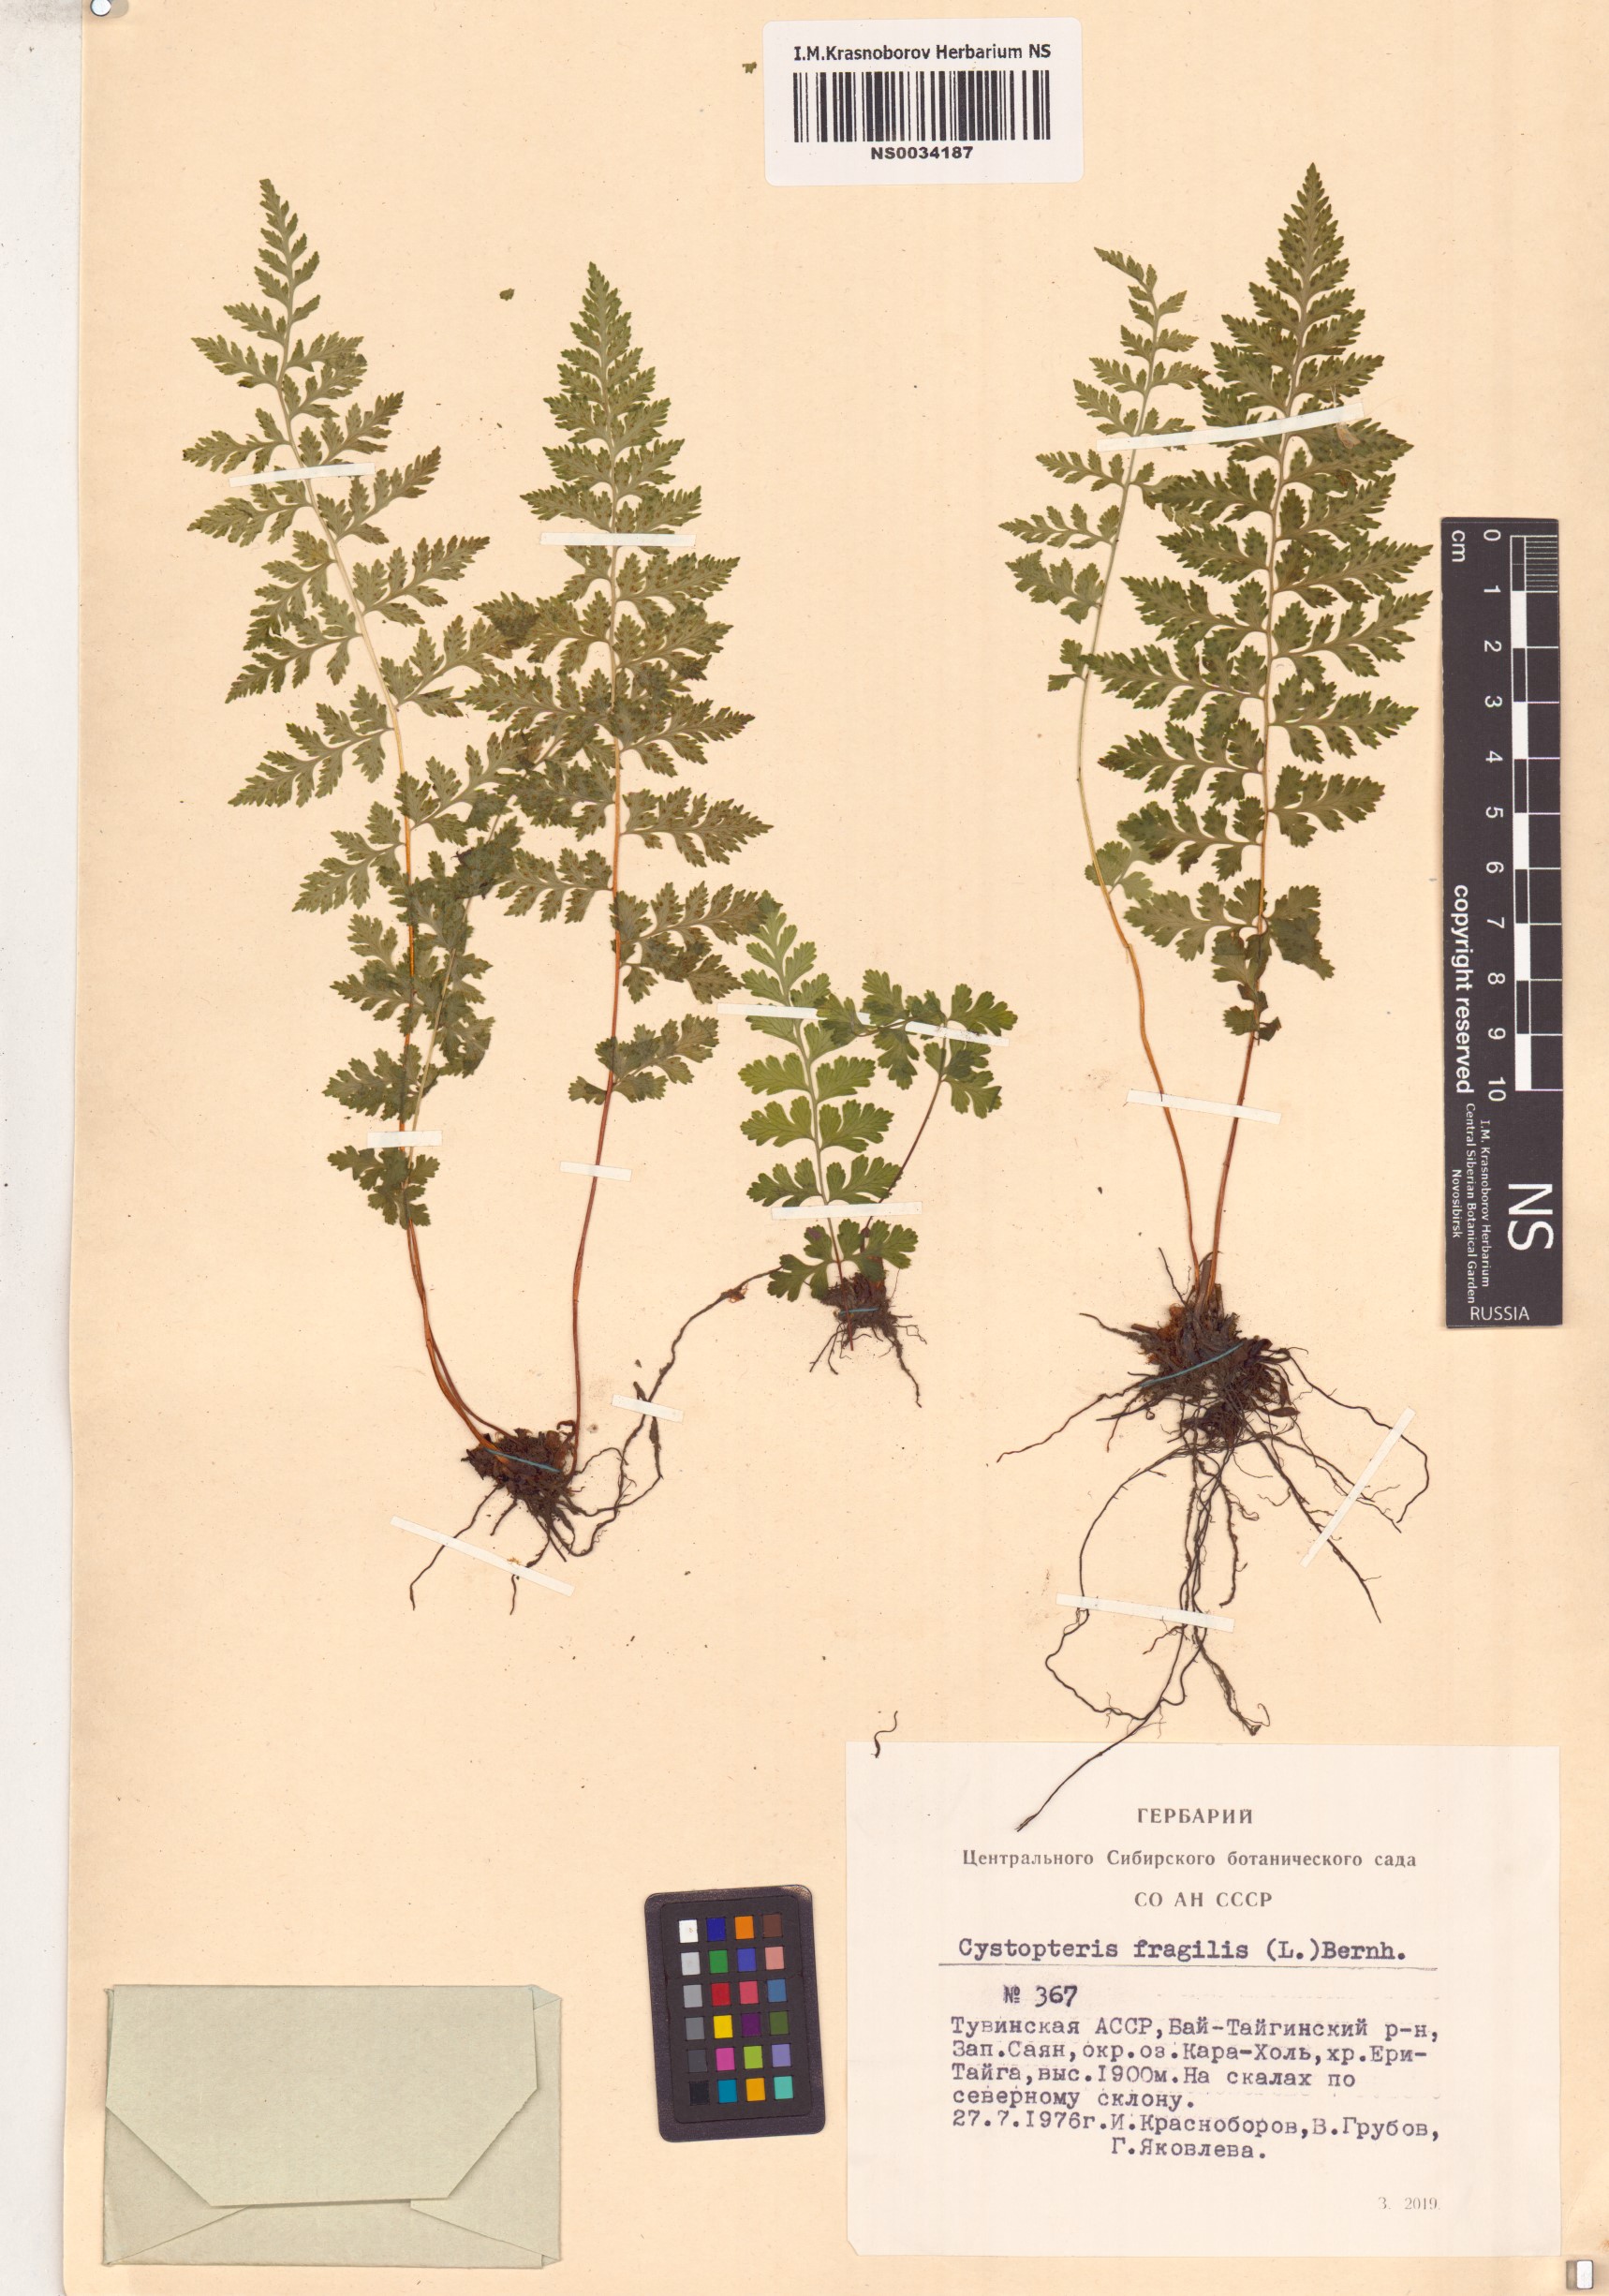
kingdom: Plantae
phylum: Tracheophyta
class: Polypodiopsida
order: Polypodiales
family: Cystopteridaceae
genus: Cystopteris
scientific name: Cystopteris fragilis
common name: Brittle bladder fern
